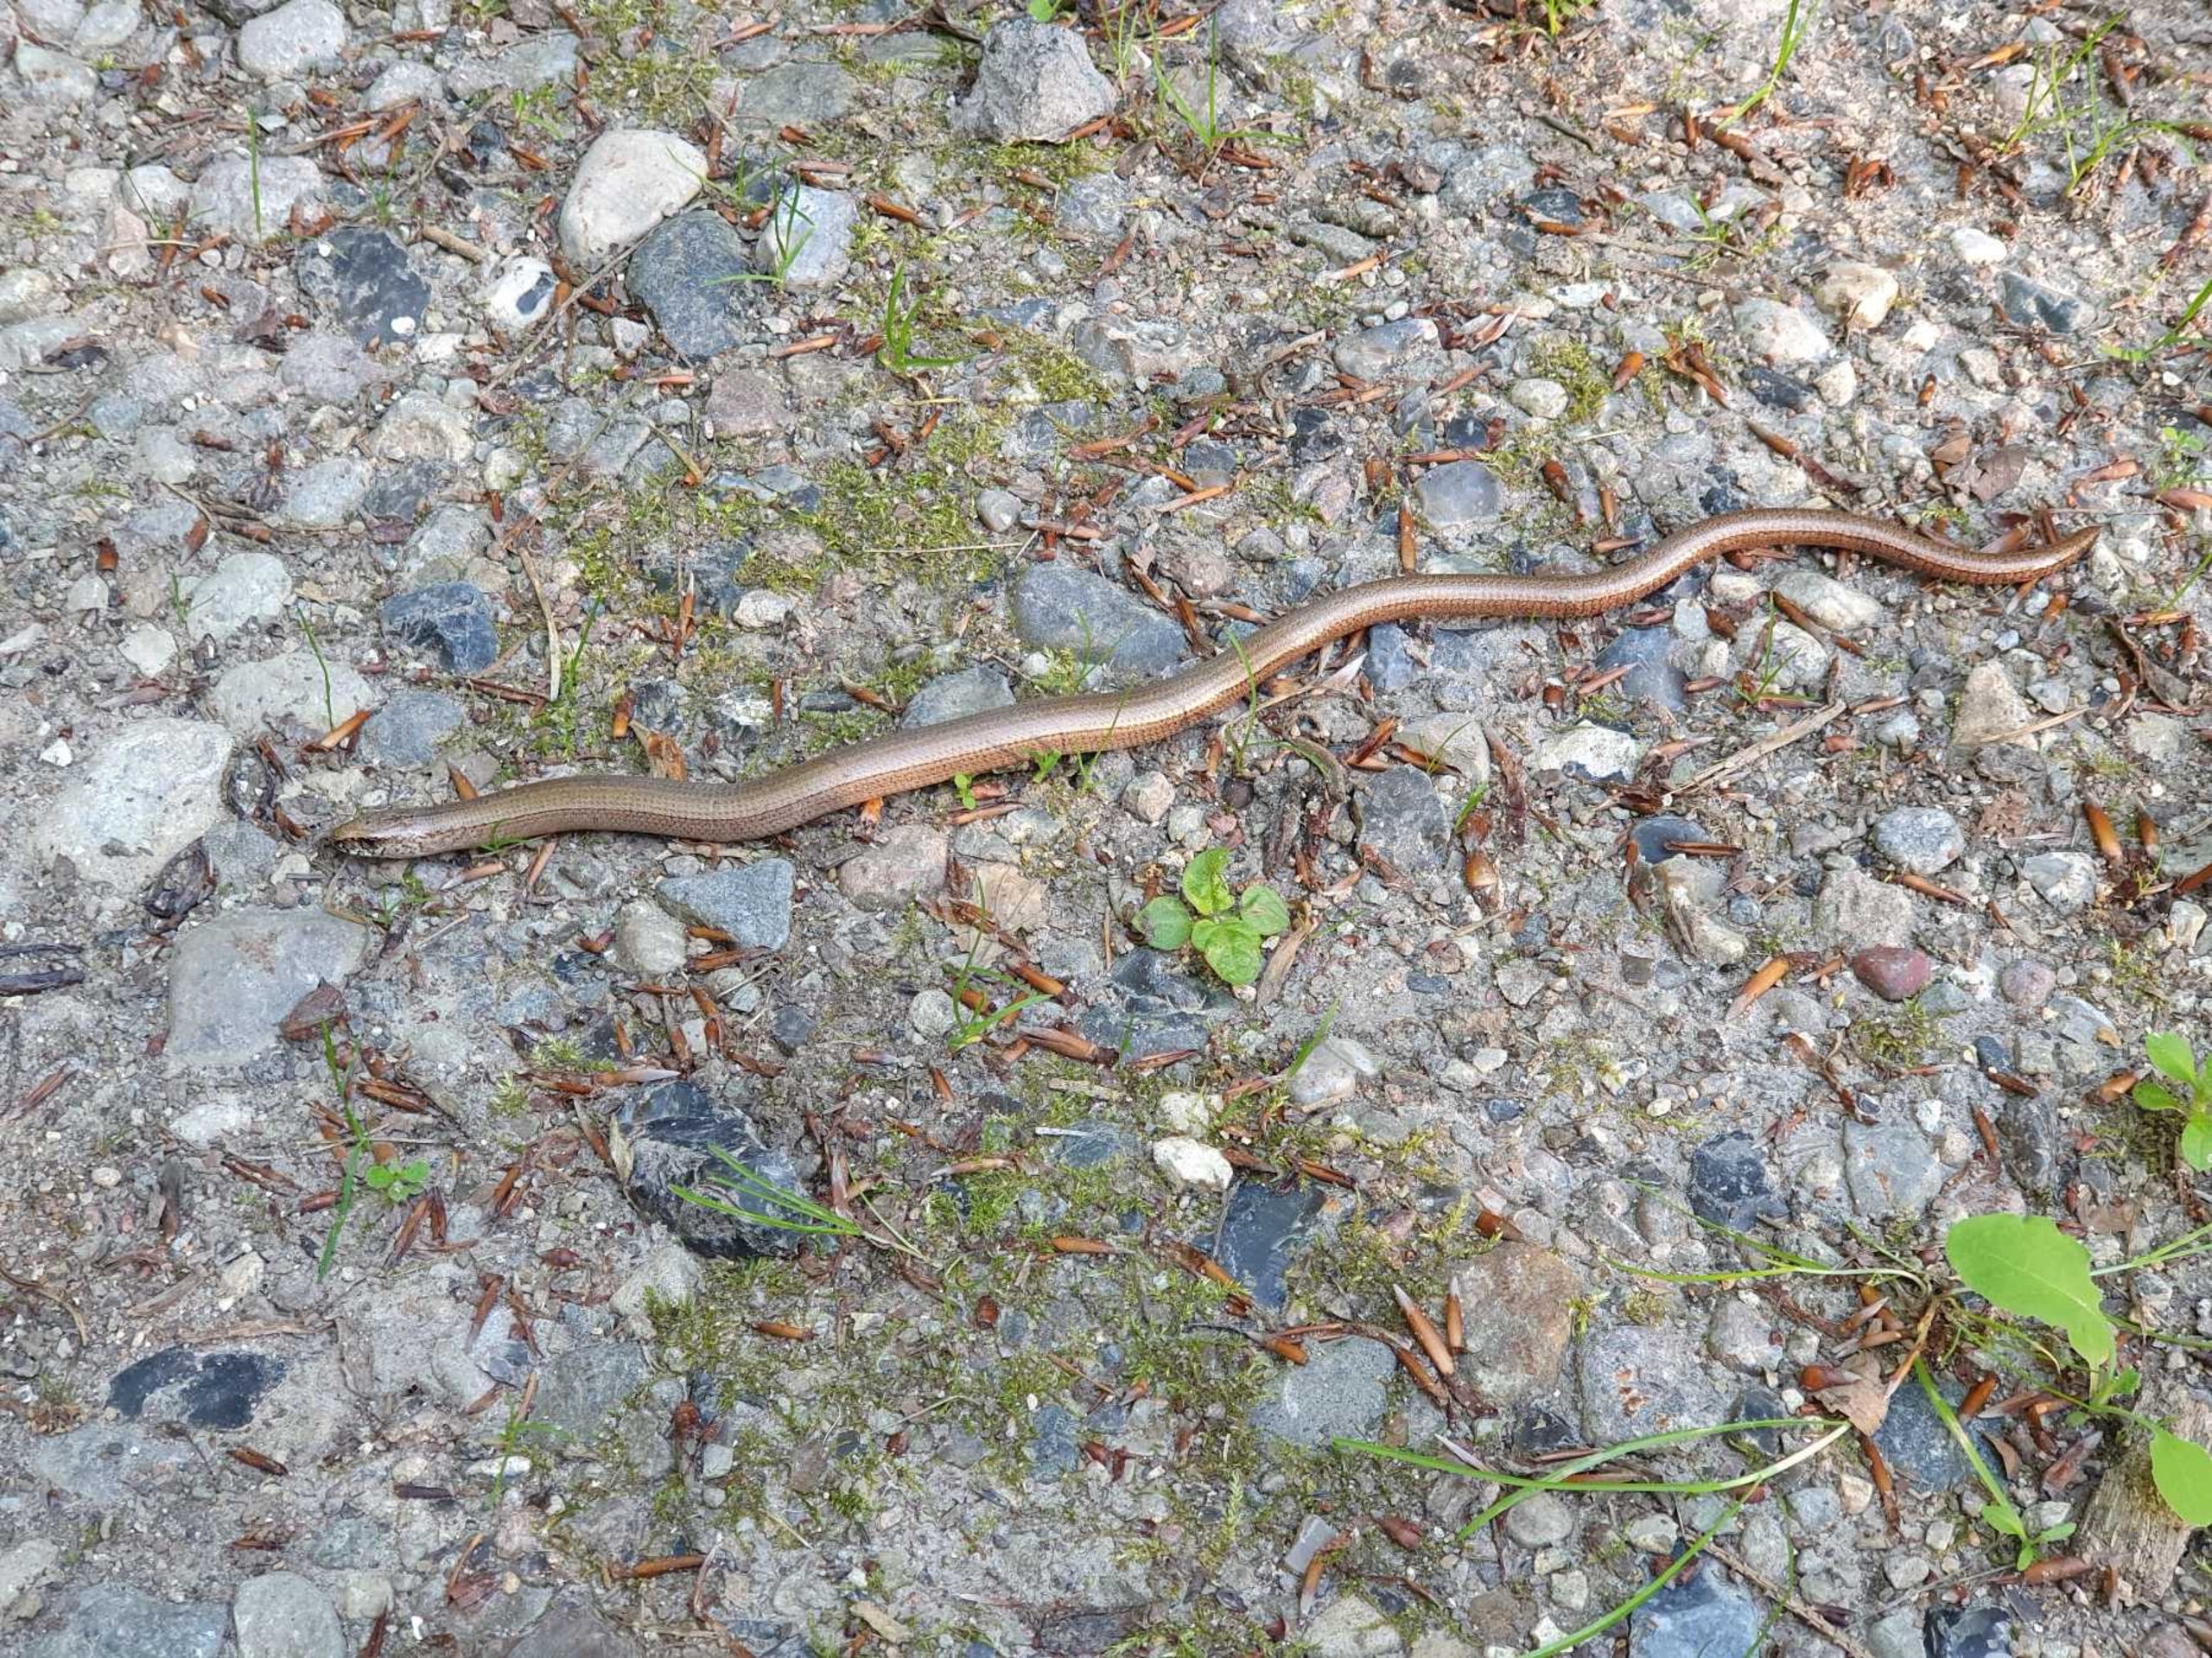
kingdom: Animalia
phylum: Chordata
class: Squamata
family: Anguidae
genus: Anguis
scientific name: Anguis fragilis
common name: Stålorm
